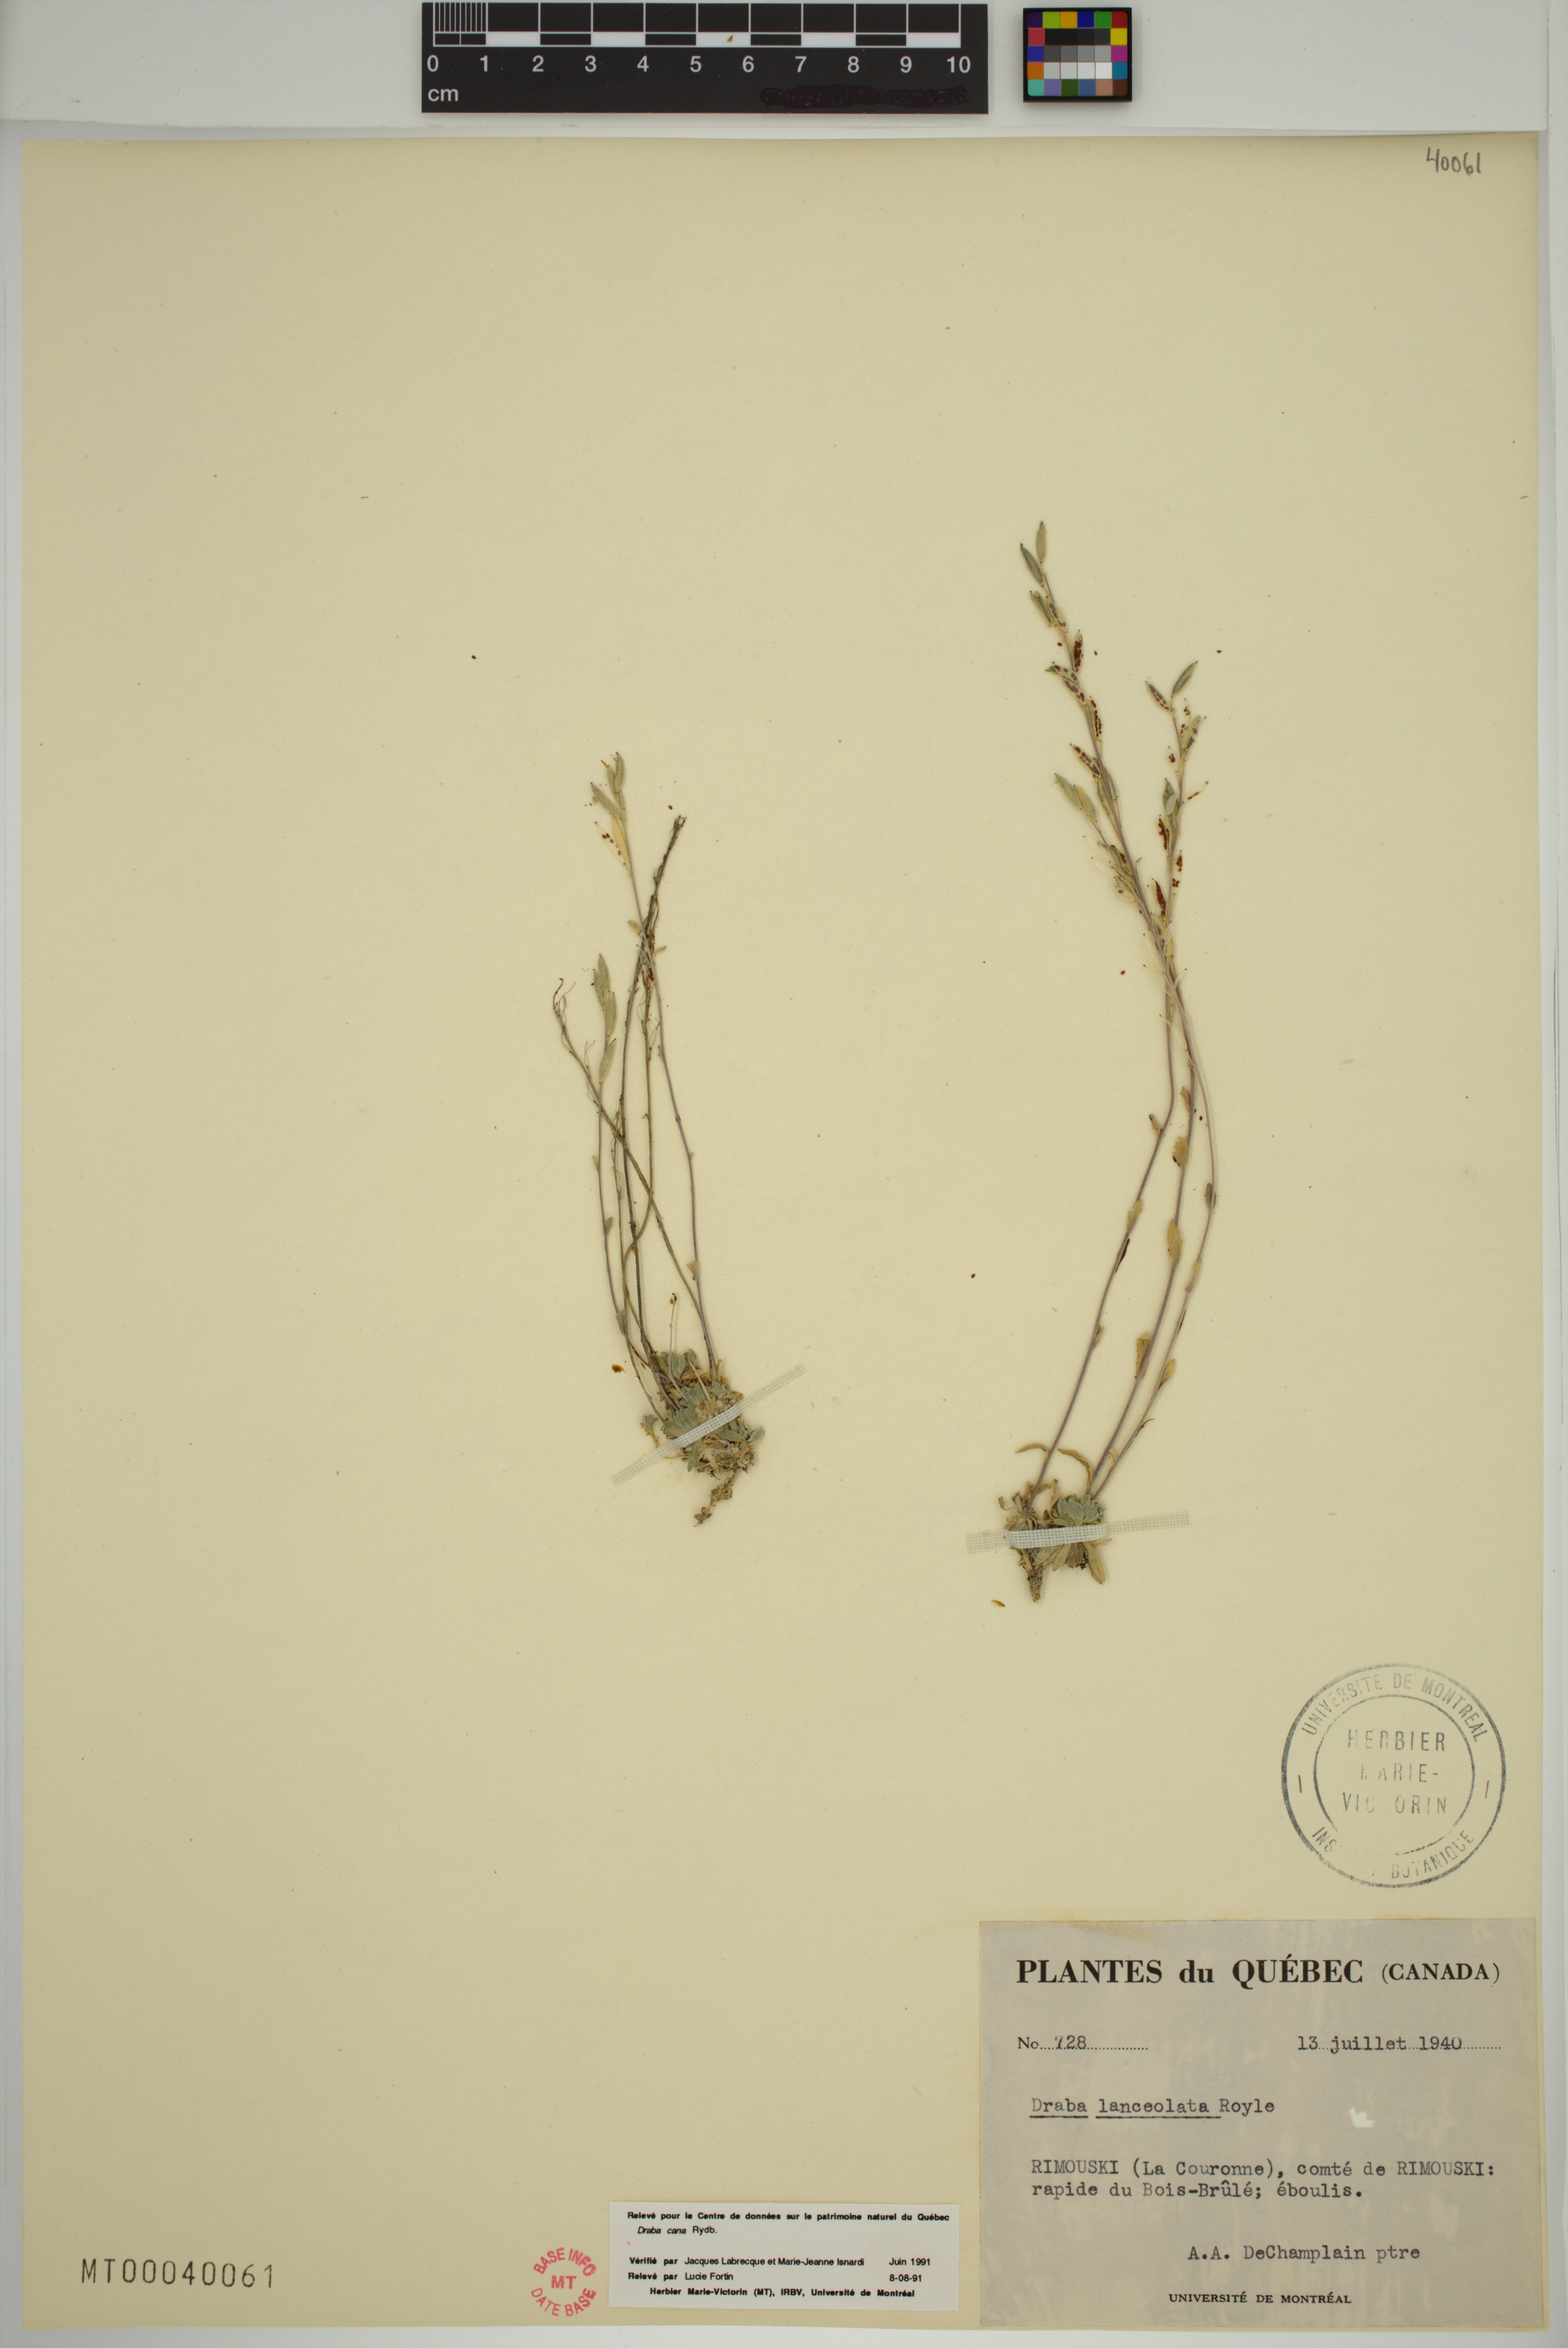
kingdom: Plantae
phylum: Tracheophyta
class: Magnoliopsida
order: Brassicales
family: Brassicaceae
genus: Draba
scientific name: Draba cana
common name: Hoary draba
